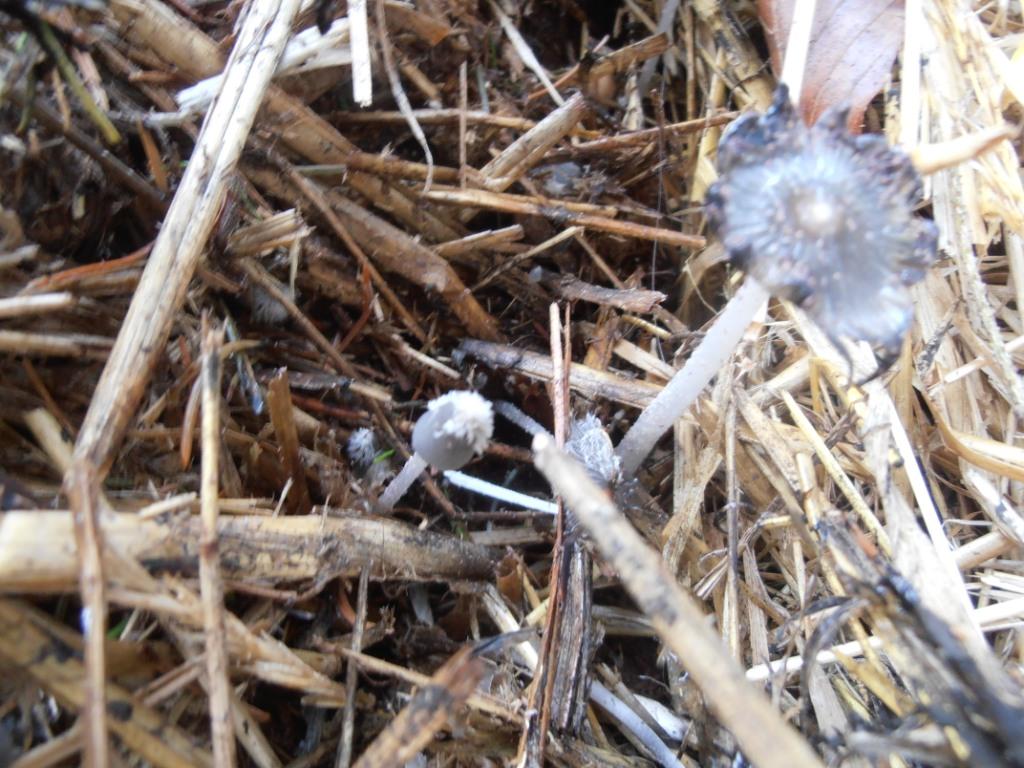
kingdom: Fungi
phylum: Basidiomycota
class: Agaricomycetes
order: Agaricales
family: Psathyrellaceae
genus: Coprinopsis
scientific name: Coprinopsis radiata
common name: lille gødnings-blækhat
